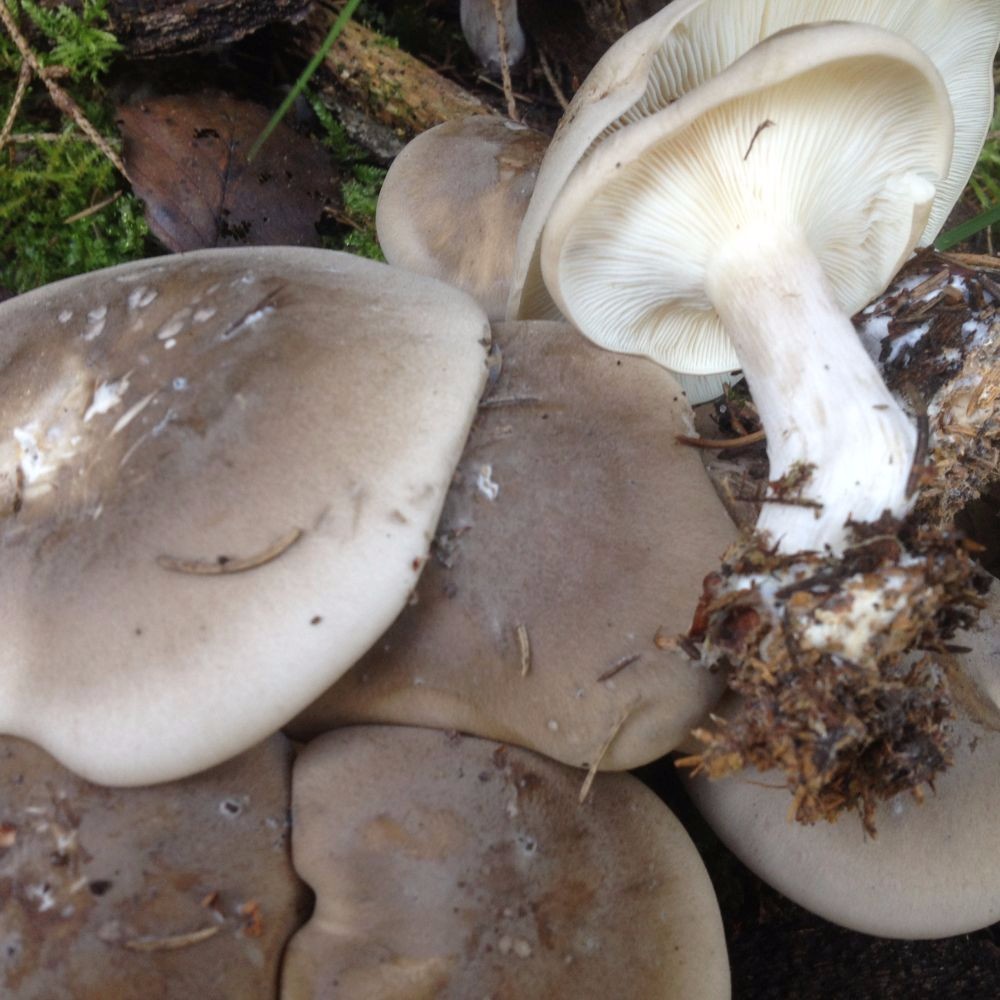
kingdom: Fungi
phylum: Basidiomycota
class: Agaricomycetes
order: Agaricales
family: Tricholomataceae
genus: Clitocybe
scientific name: Clitocybe nebularis
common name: tåge-tragthat
